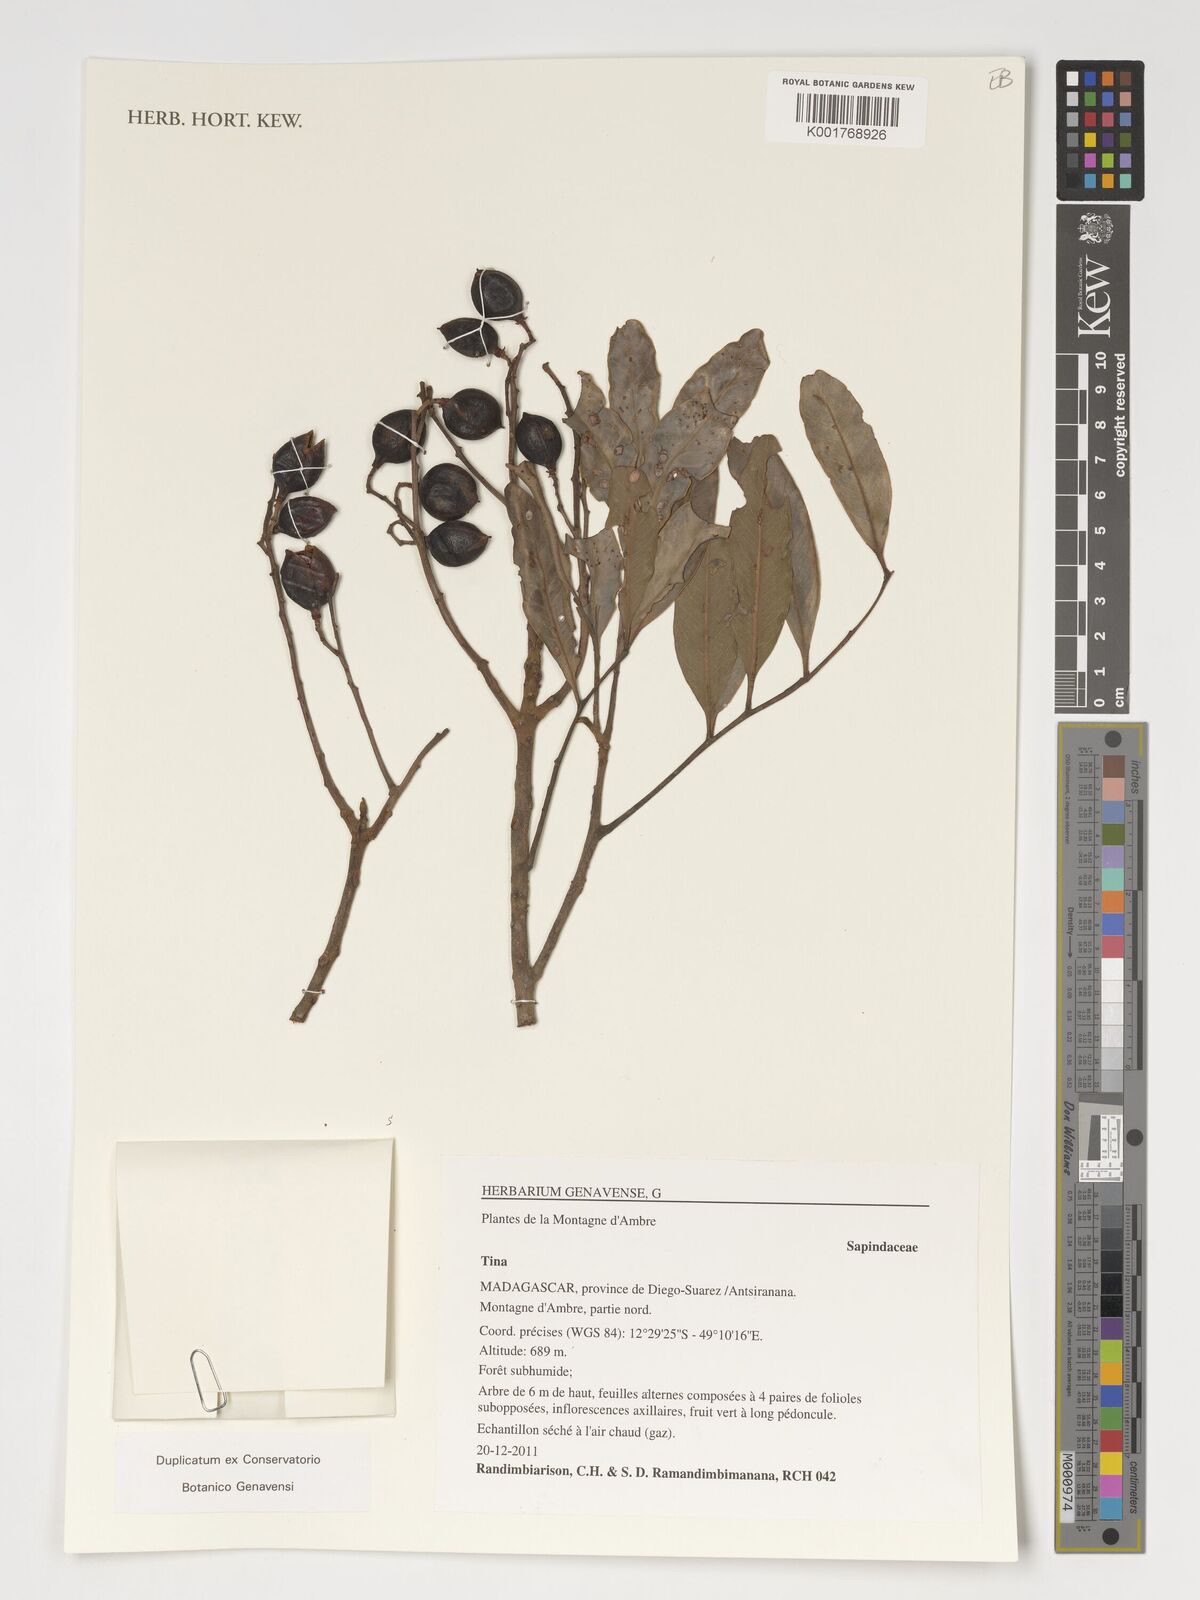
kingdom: Plantae
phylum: Tracheophyta
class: Magnoliopsida
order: Sapindales
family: Sapindaceae
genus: Tina
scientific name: Tina
